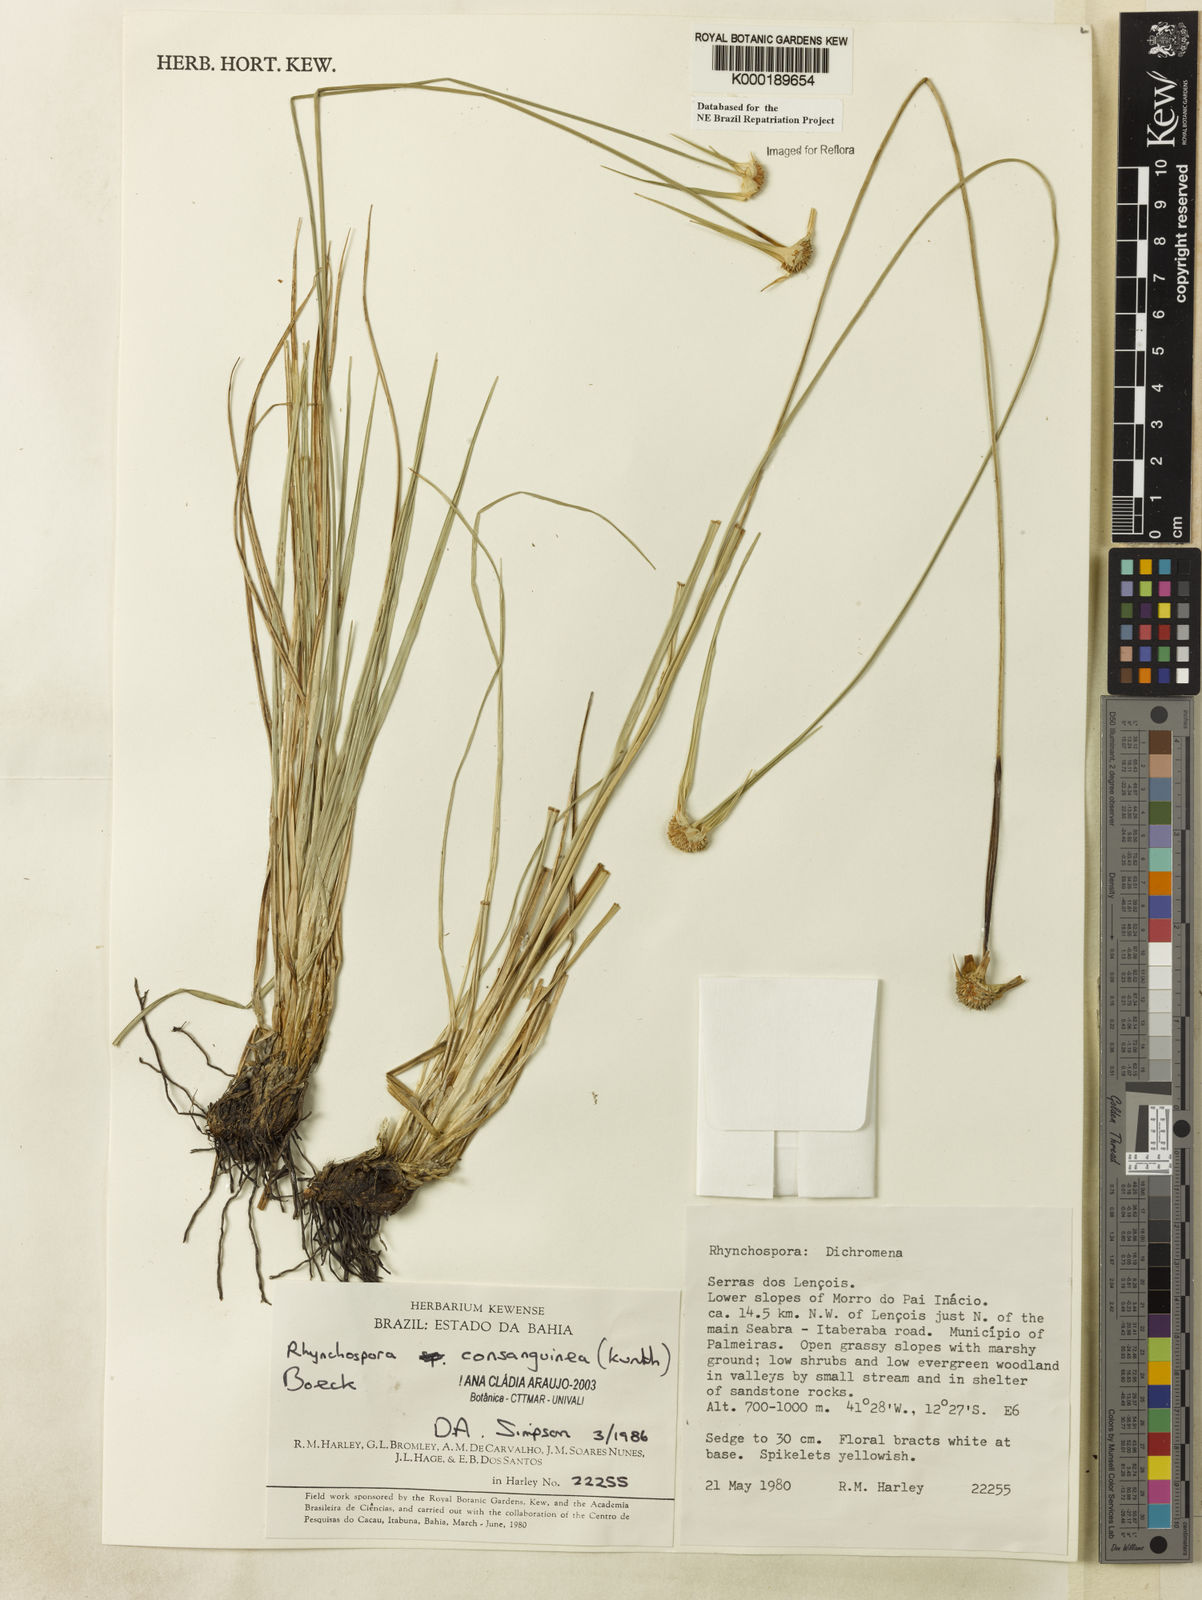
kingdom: Plantae
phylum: Tracheophyta
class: Liliopsida
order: Poales
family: Cyperaceae
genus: Rhynchospora
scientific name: Rhynchospora consanguinea
